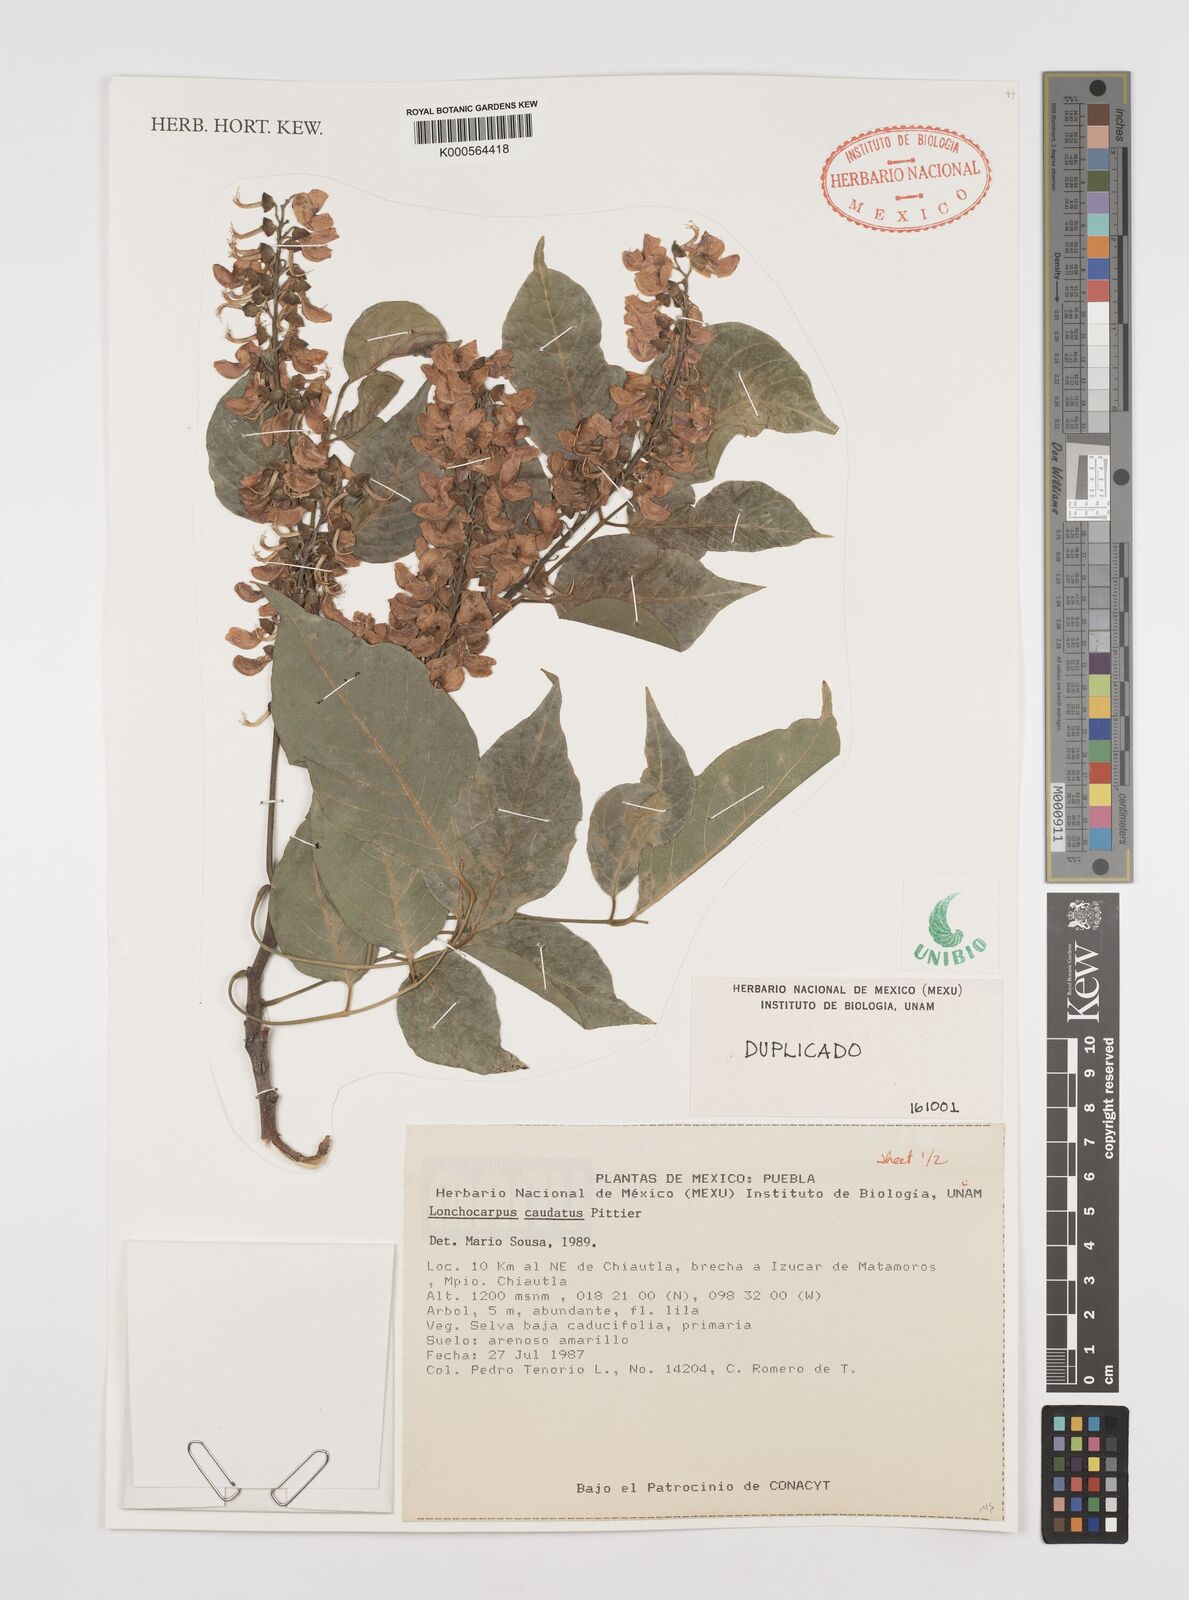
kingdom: Plantae
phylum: Tracheophyta
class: Magnoliopsida
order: Fabales
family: Fabaceae
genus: Lonchocarpus
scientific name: Lonchocarpus caudatus
